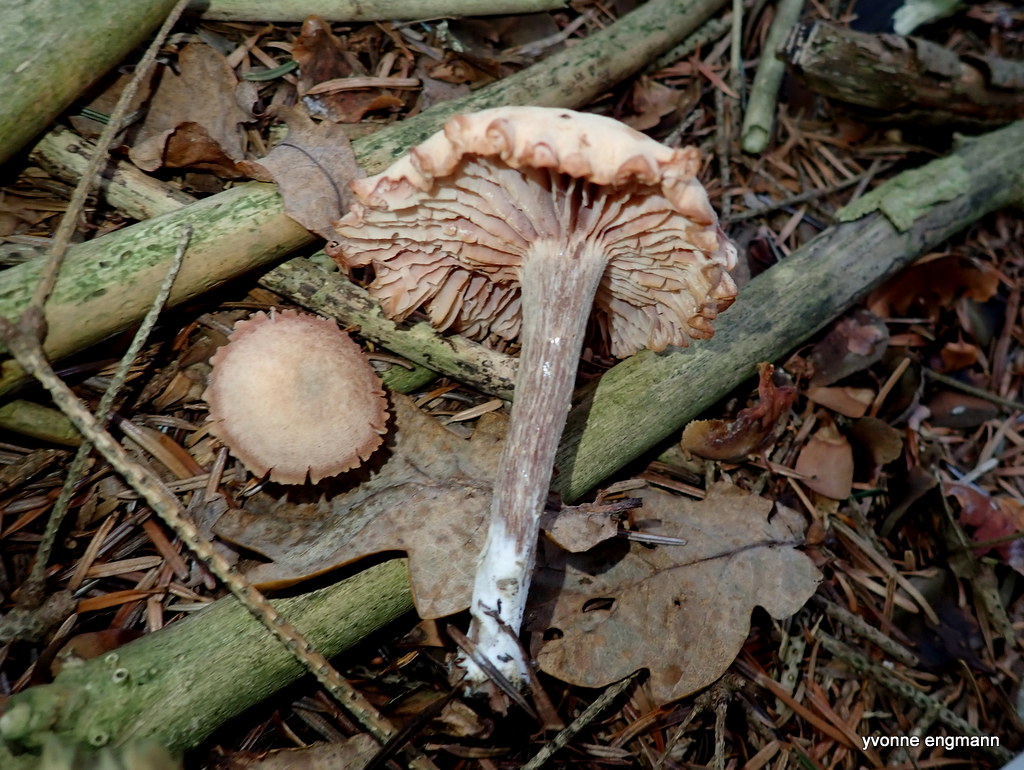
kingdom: Fungi
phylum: Basidiomycota
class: Agaricomycetes
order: Agaricales
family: Hydnangiaceae
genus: Laccaria
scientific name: Laccaria laccata
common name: rød ametysthat
